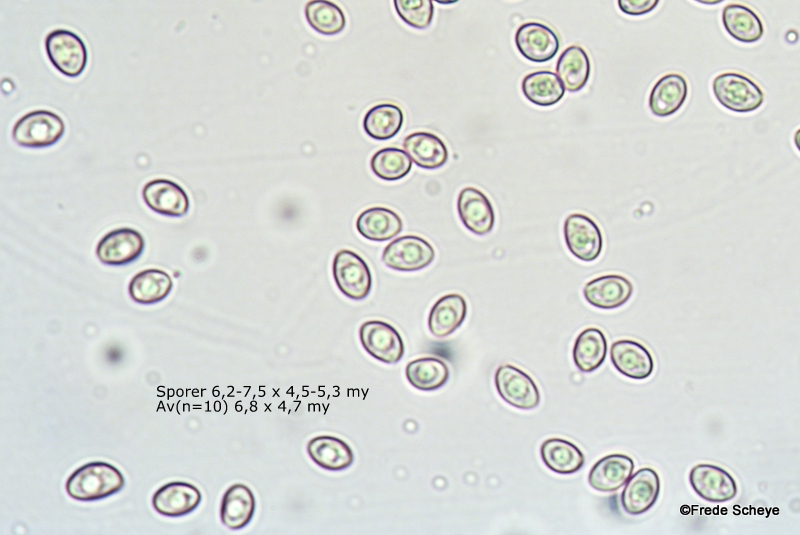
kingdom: Fungi
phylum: Basidiomycota
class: Agaricomycetes
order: Agaricales
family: Crepidotaceae
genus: Crepidotus
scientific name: Crepidotus mollis
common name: blød muslingesvamp
